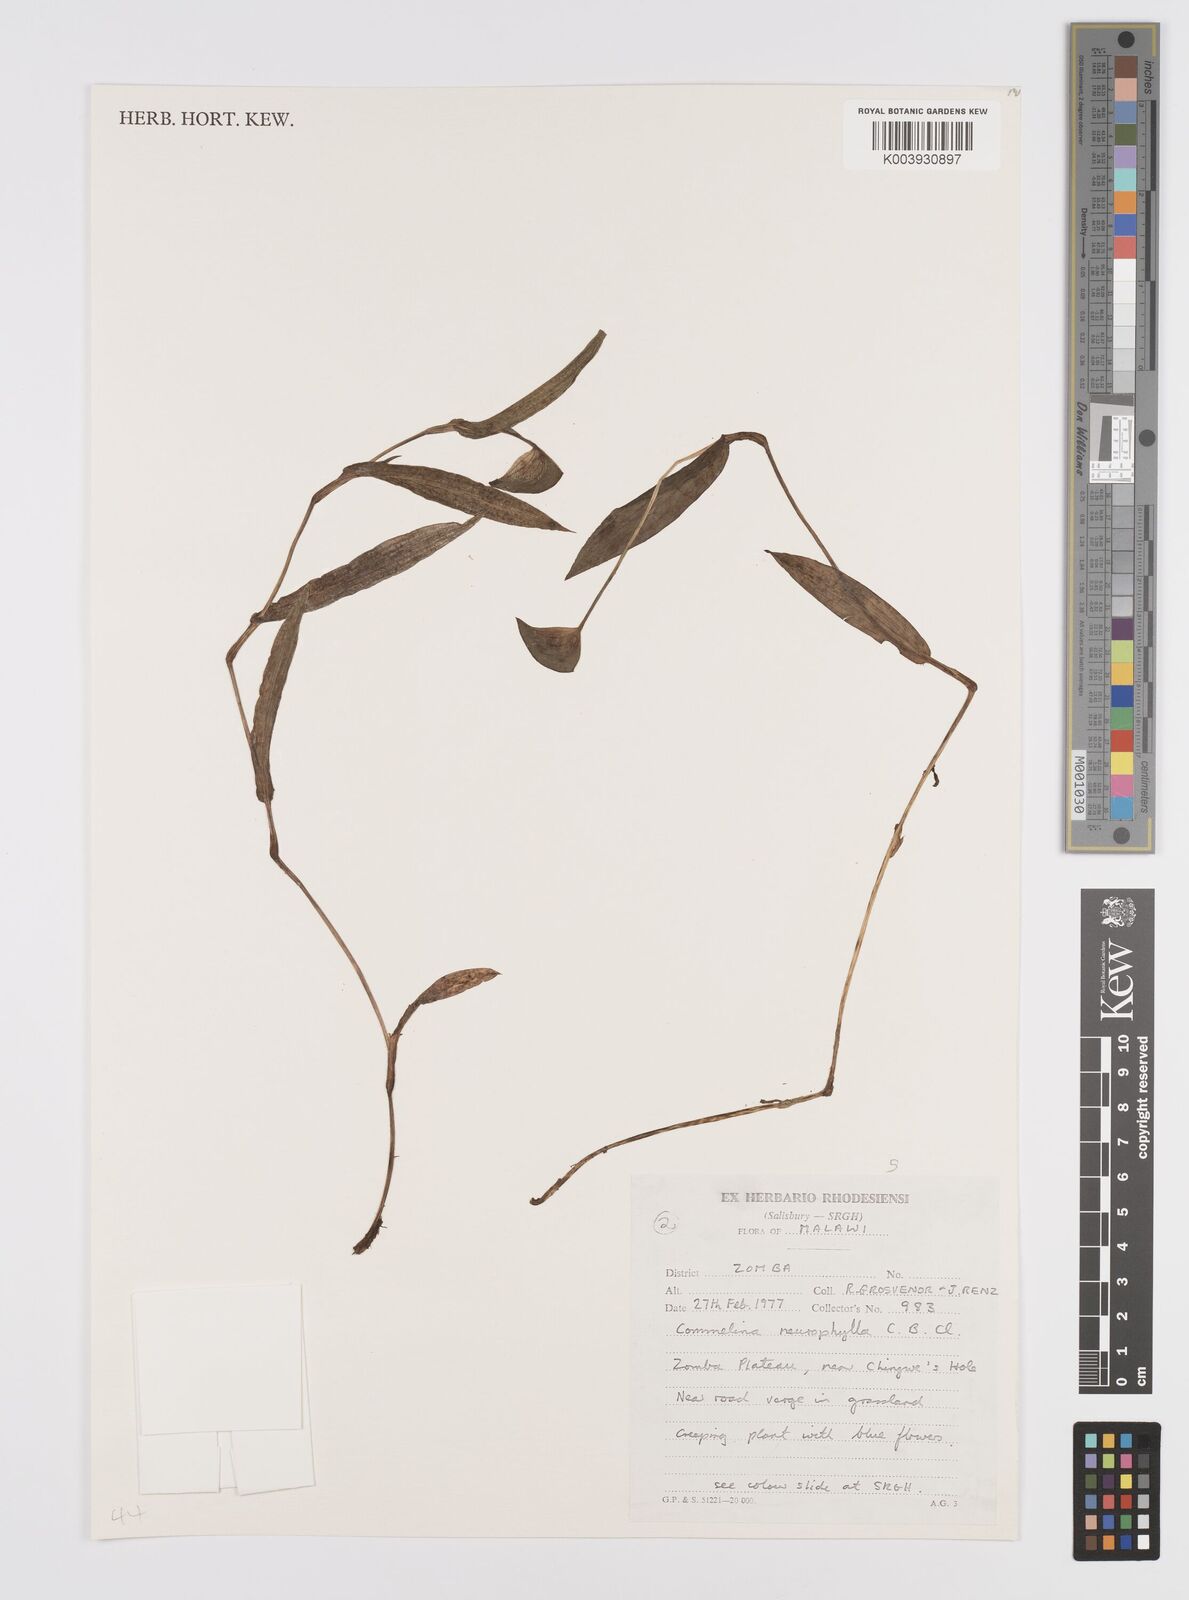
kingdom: Plantae
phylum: Tracheophyta
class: Liliopsida
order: Commelinales
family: Commelinaceae
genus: Commelina
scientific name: Commelina neurophylla
